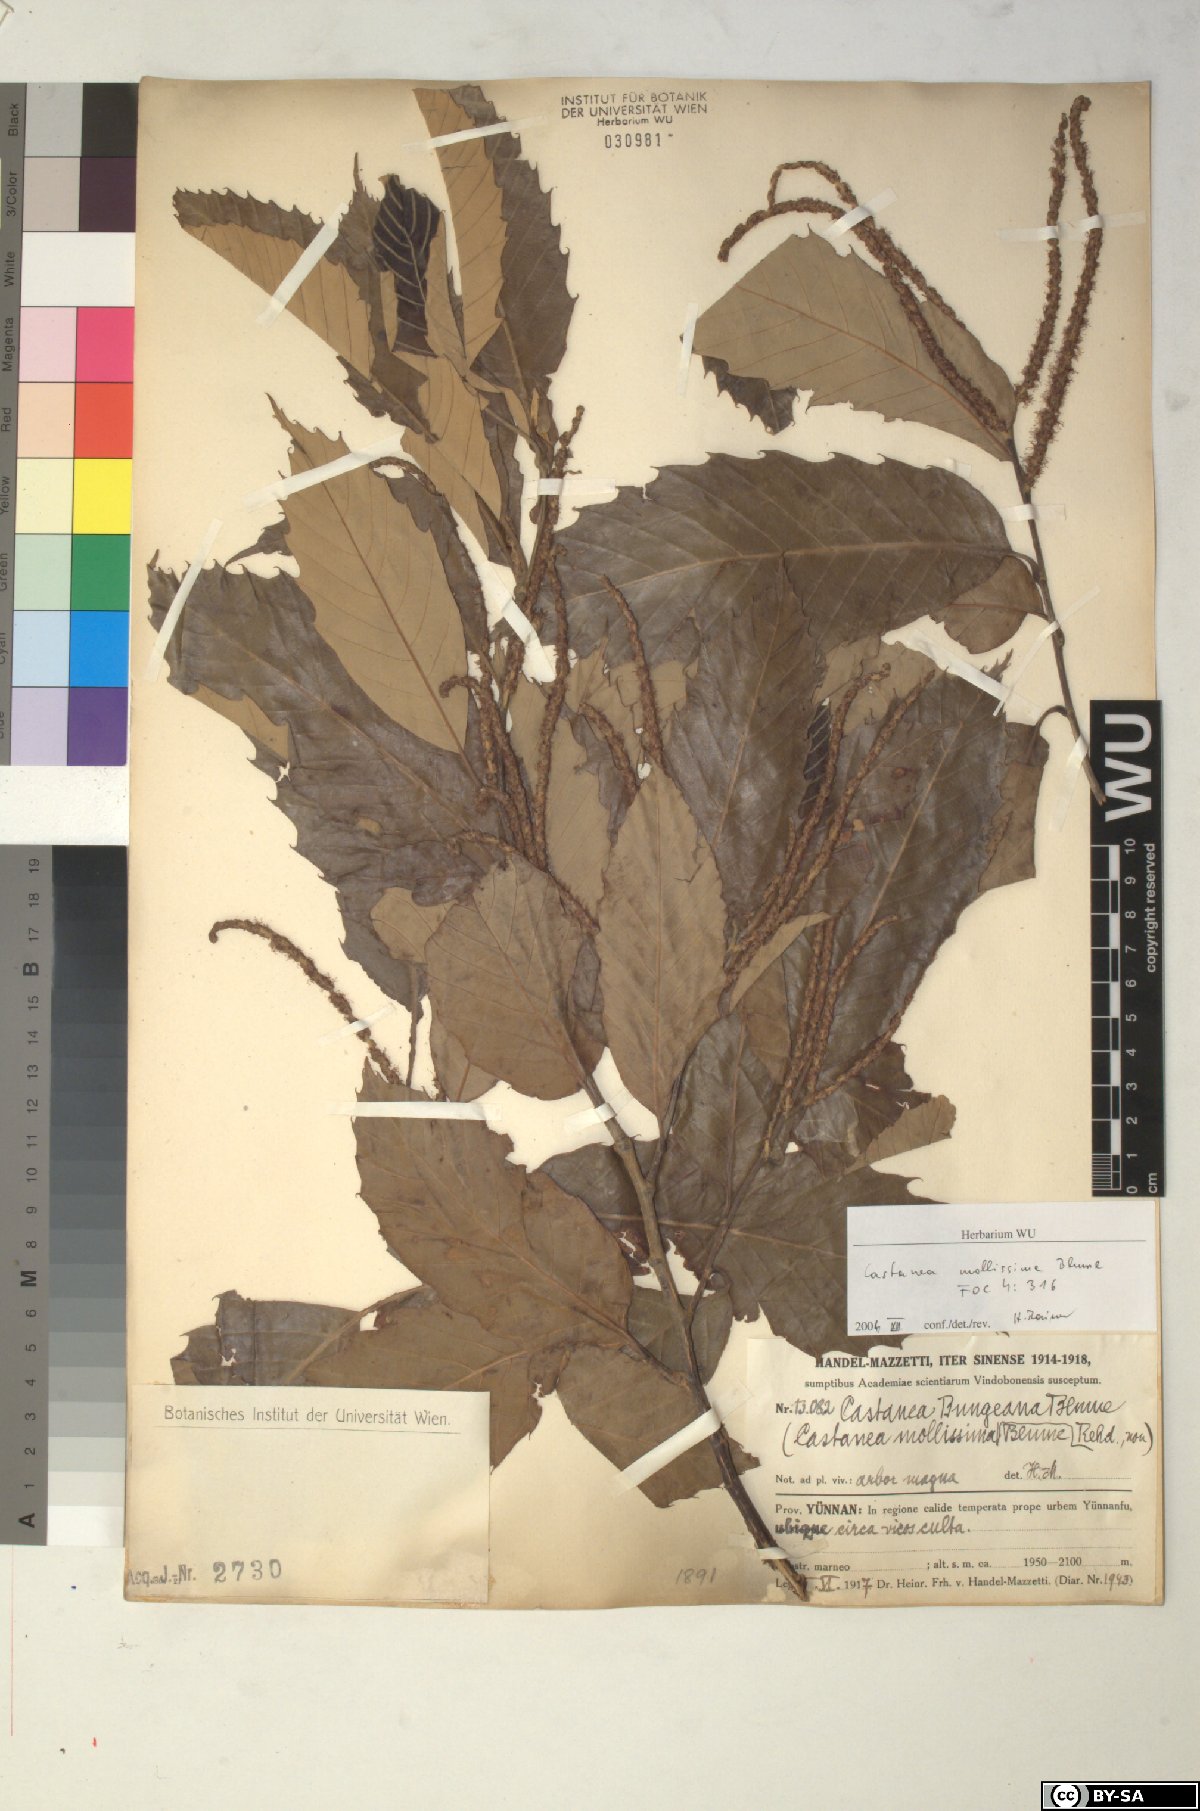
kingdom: Plantae
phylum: Tracheophyta
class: Magnoliopsida
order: Fagales
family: Fagaceae
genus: Castanea
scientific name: Castanea mollissima
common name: Chinese chestnut
